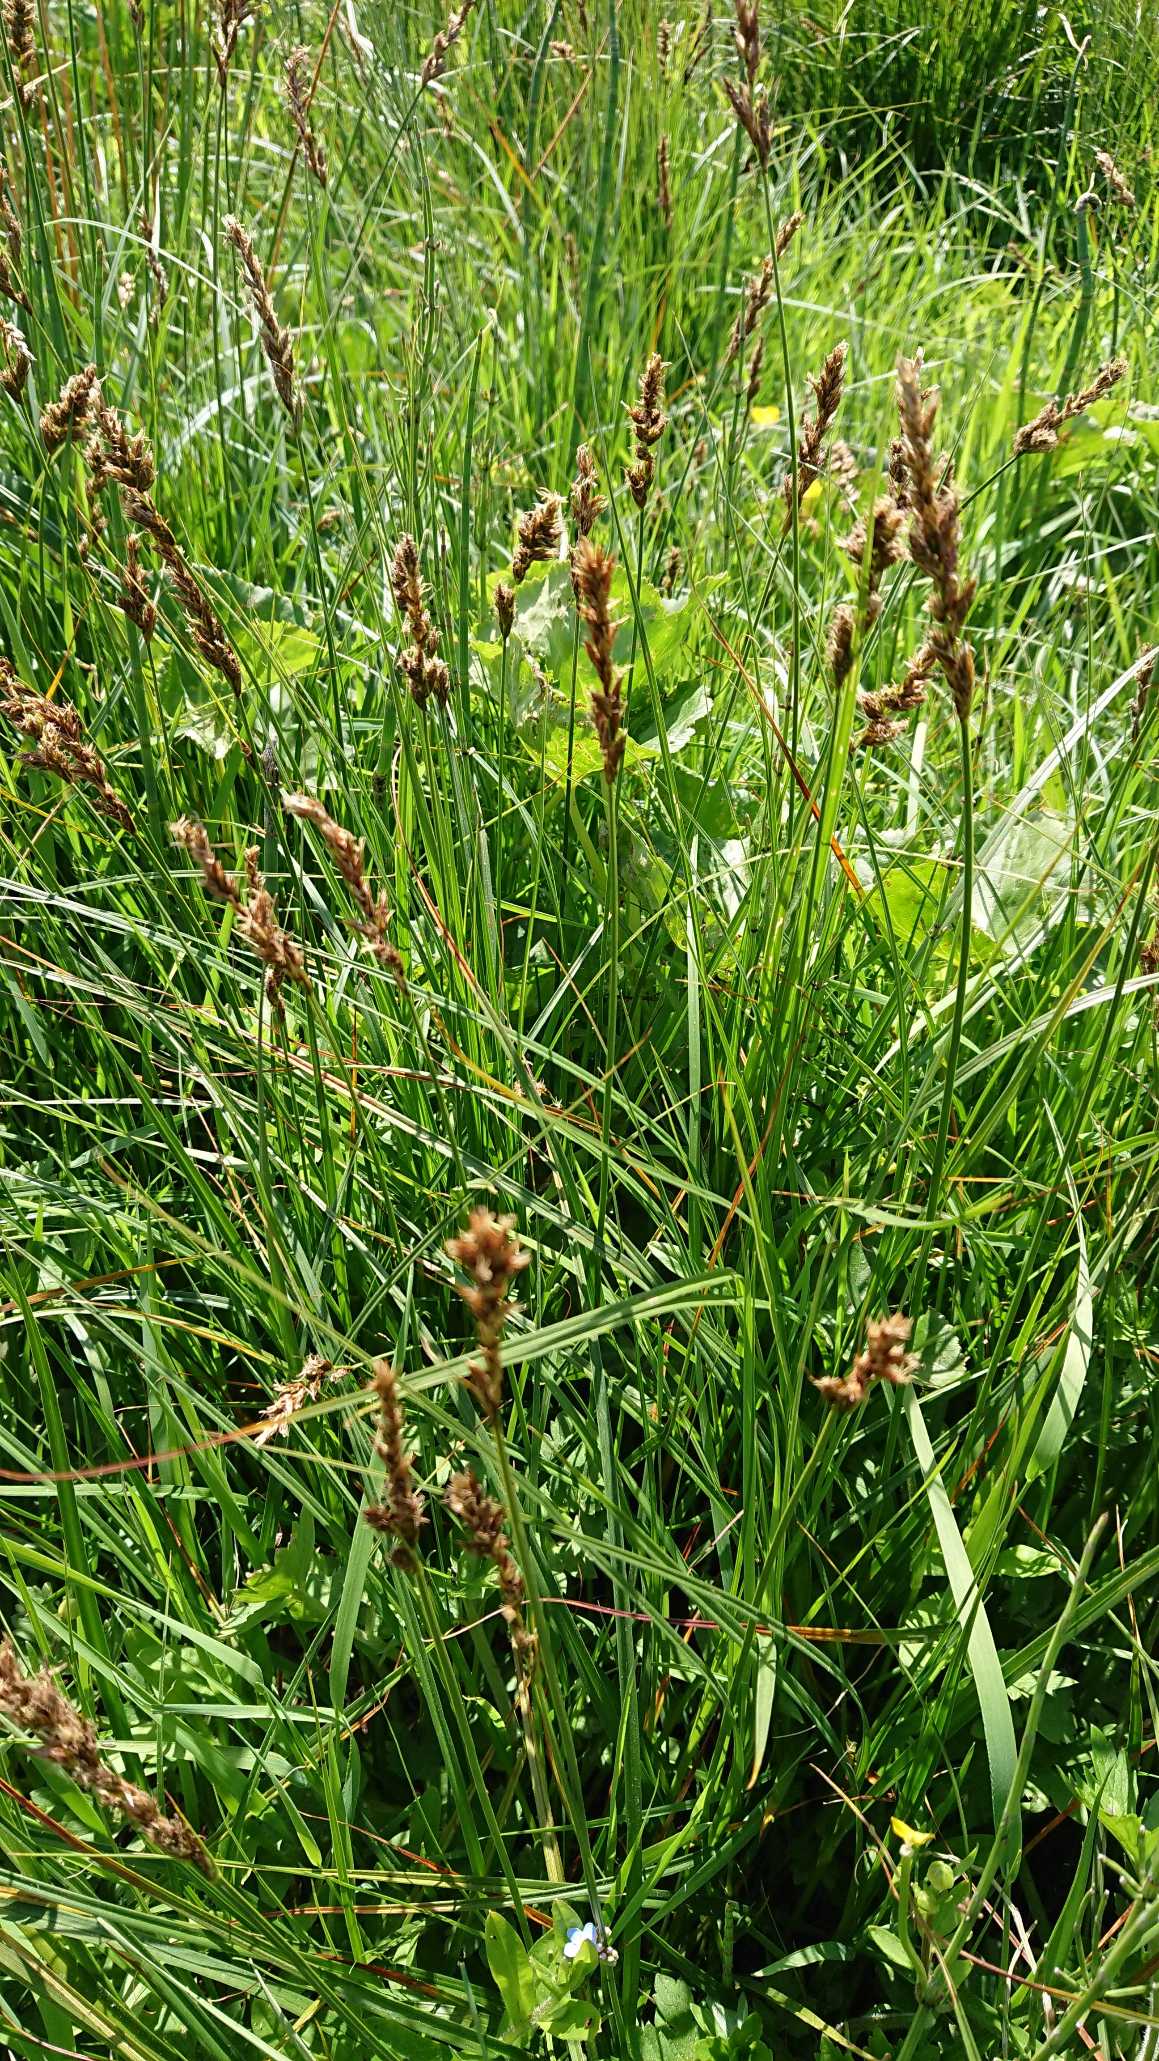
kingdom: Plantae
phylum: Tracheophyta
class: Liliopsida
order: Poales
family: Cyperaceae
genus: Carex
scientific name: Carex disticha
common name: Toradet star
